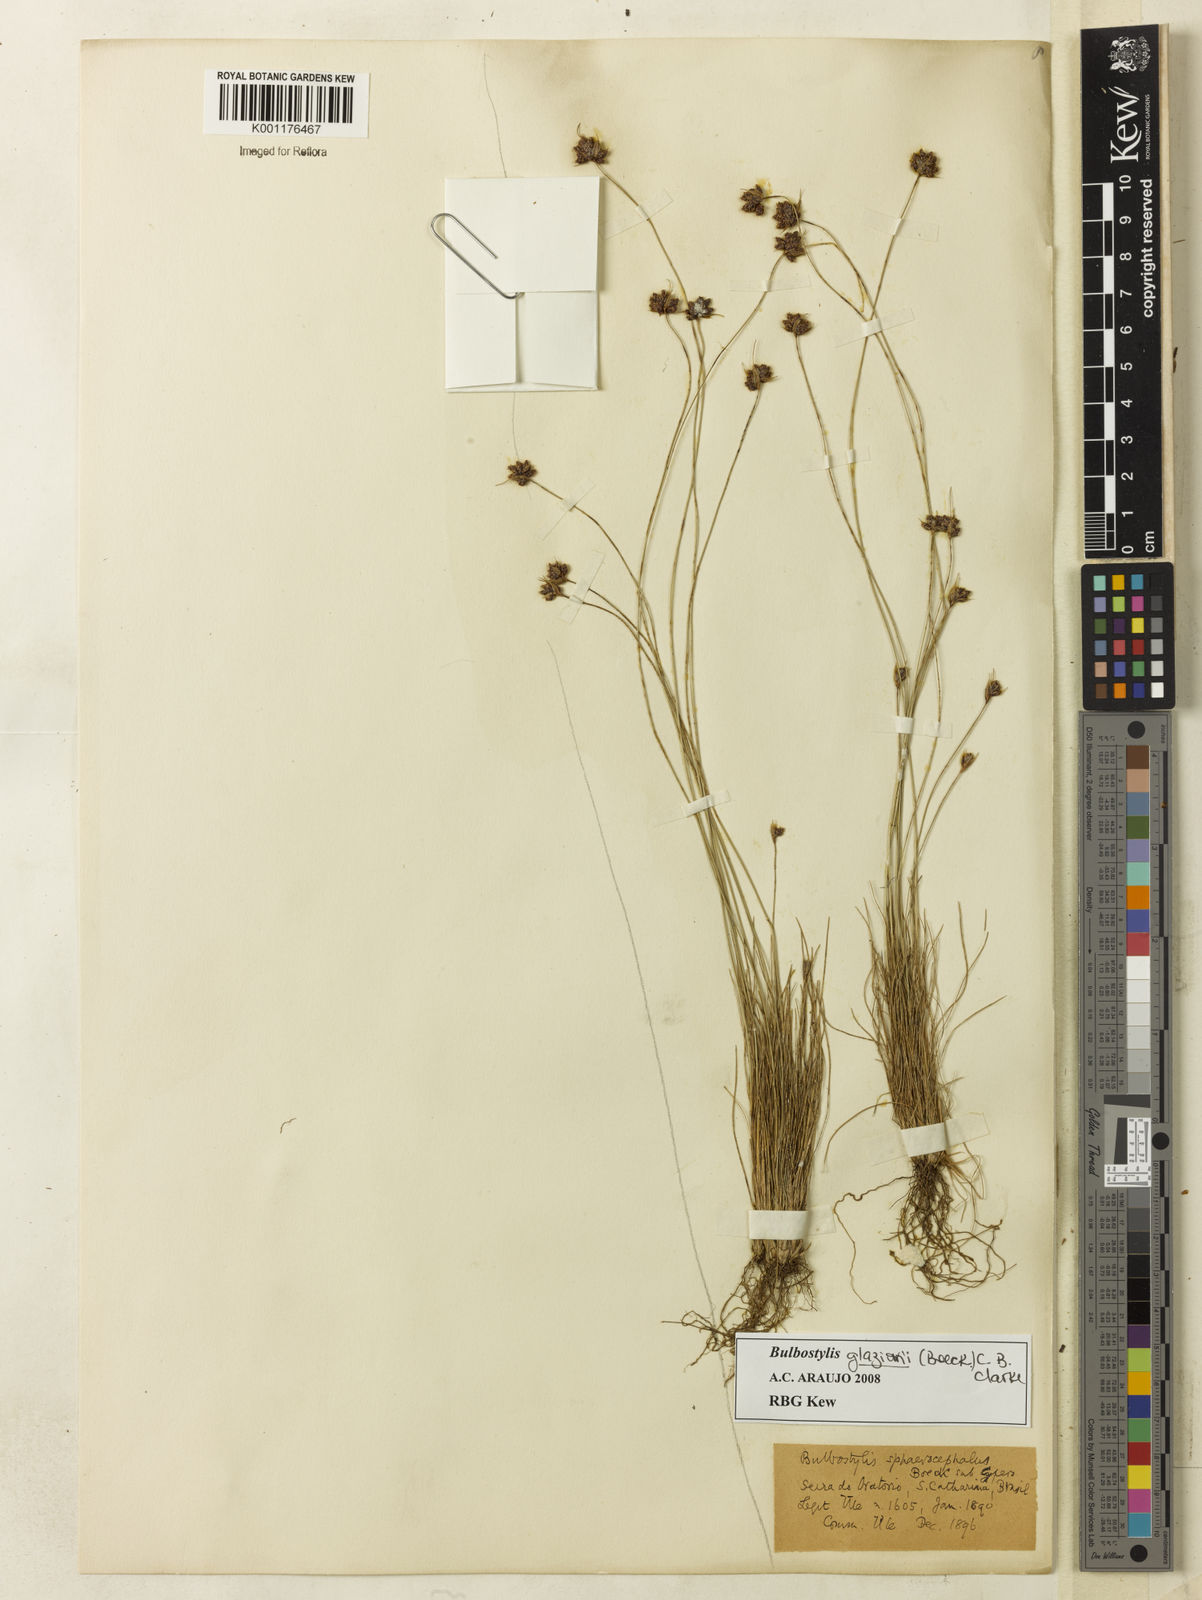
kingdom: Plantae
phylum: Tracheophyta
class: Liliopsida
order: Poales
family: Cyperaceae
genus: Bulbostylis
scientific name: Bulbostylis juncoides
